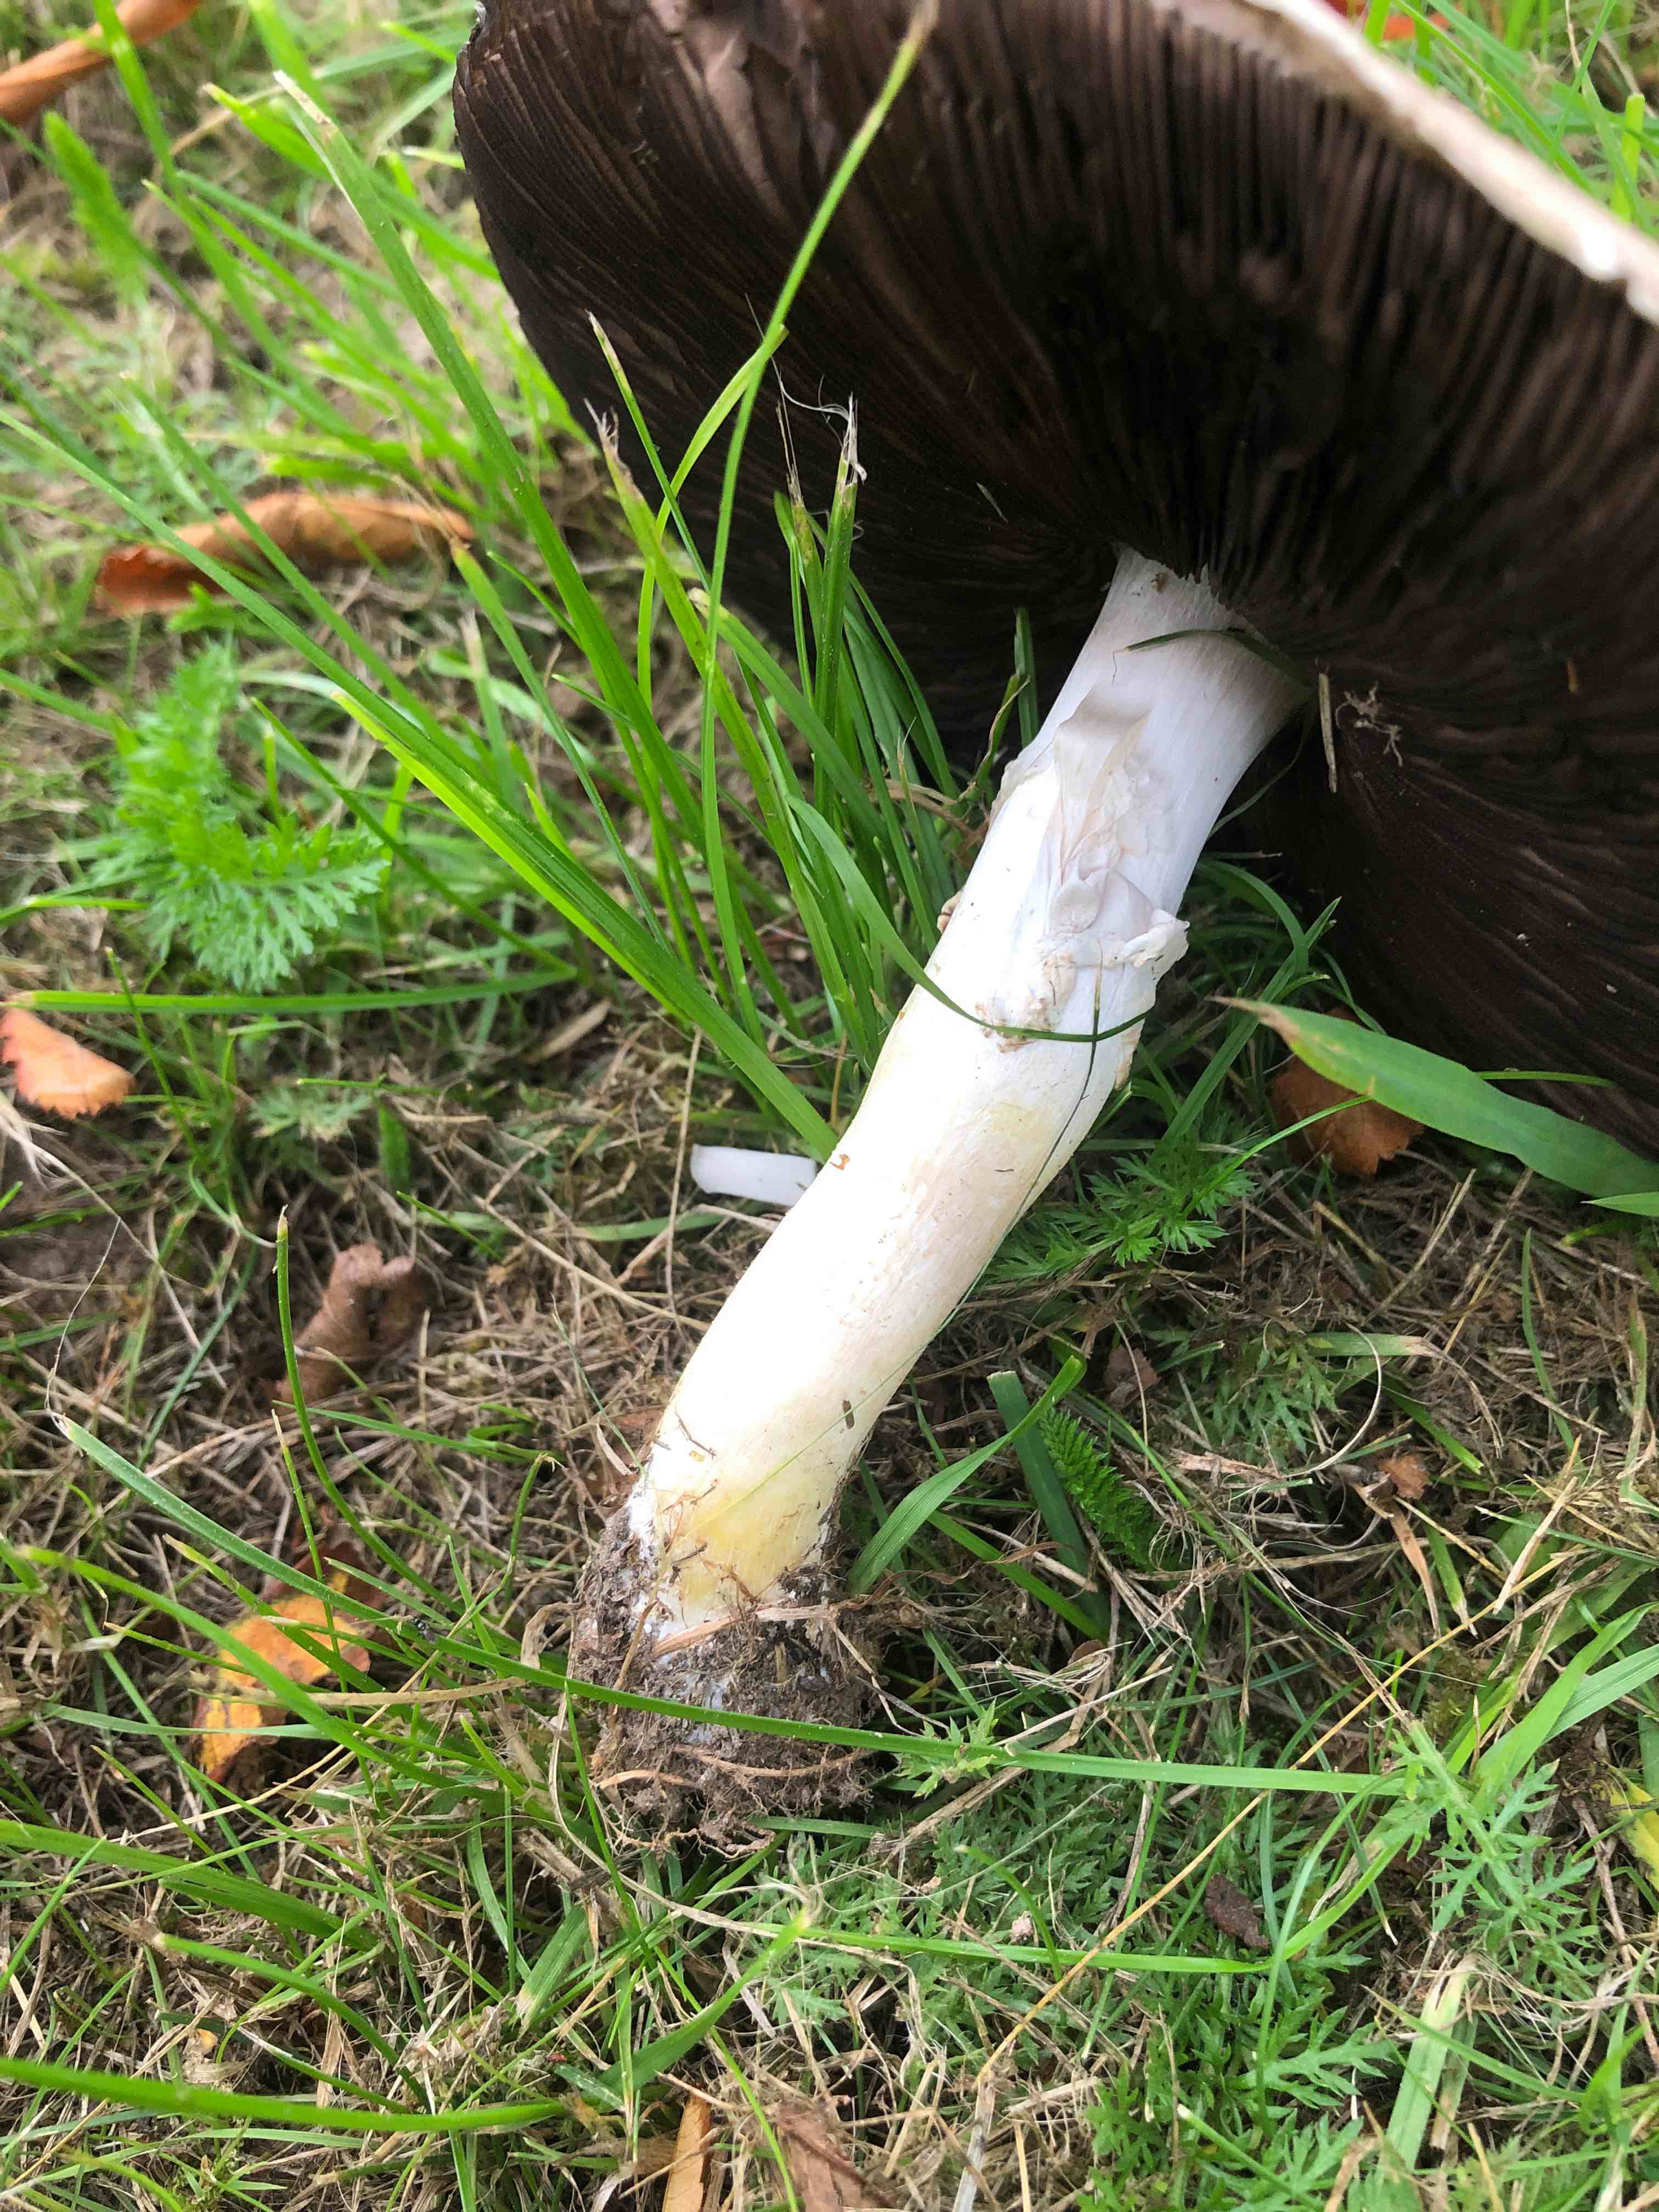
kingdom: Fungi
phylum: Basidiomycota
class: Agaricomycetes
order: Agaricales
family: Agaricaceae
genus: Agaricus
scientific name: Agaricus
